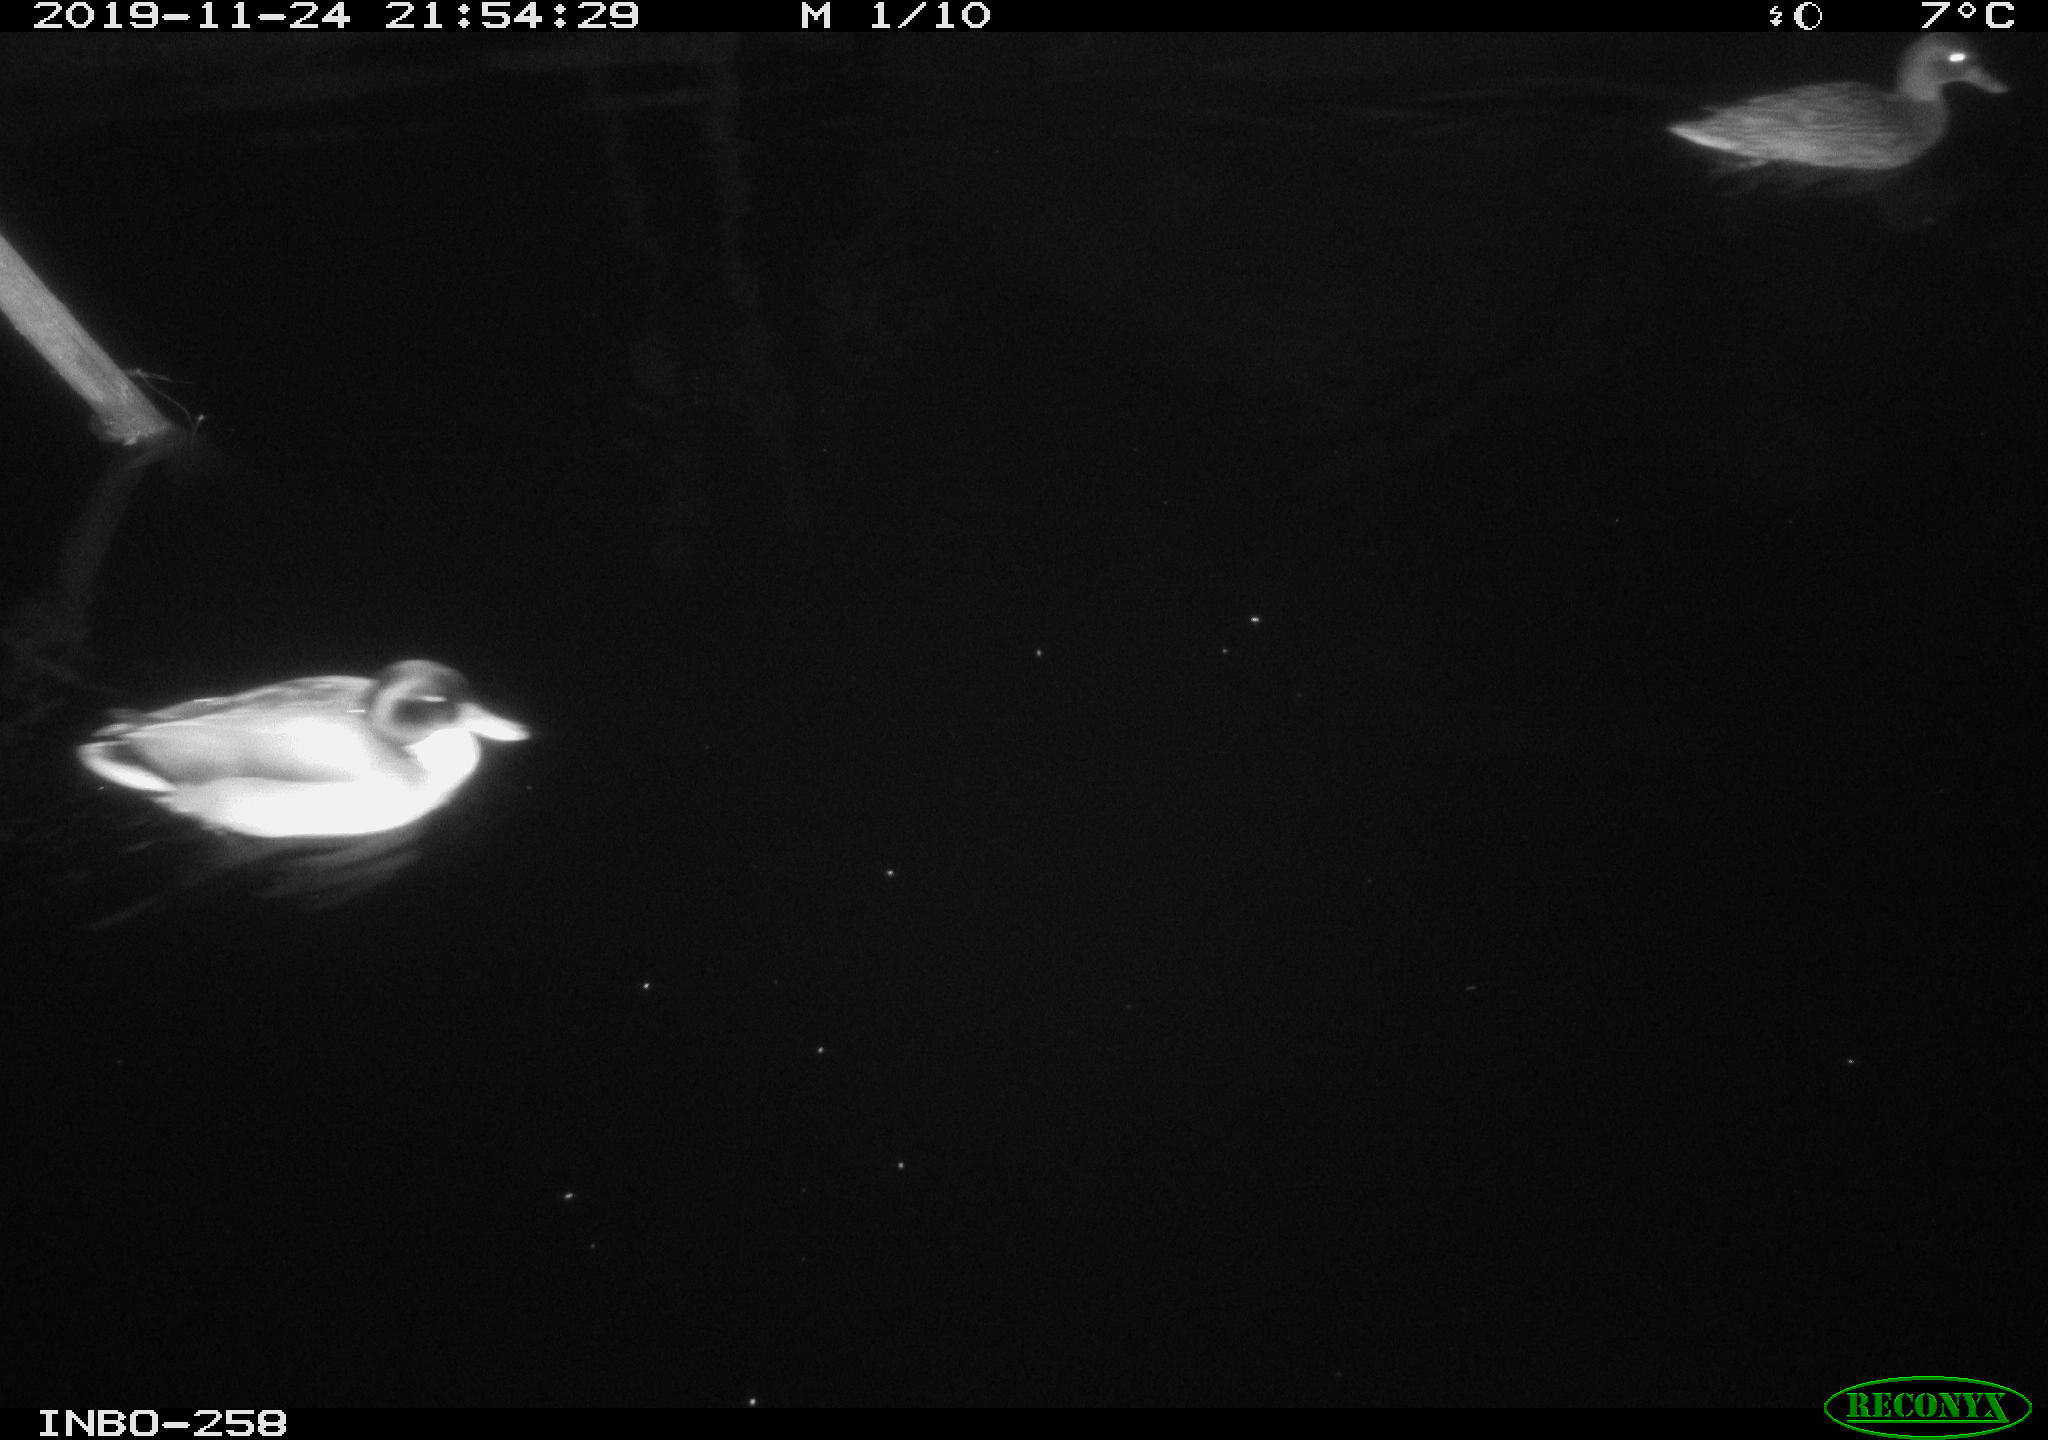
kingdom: Animalia
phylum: Chordata
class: Aves
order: Anseriformes
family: Anatidae
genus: Anas
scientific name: Anas platyrhynchos
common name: Mallard
